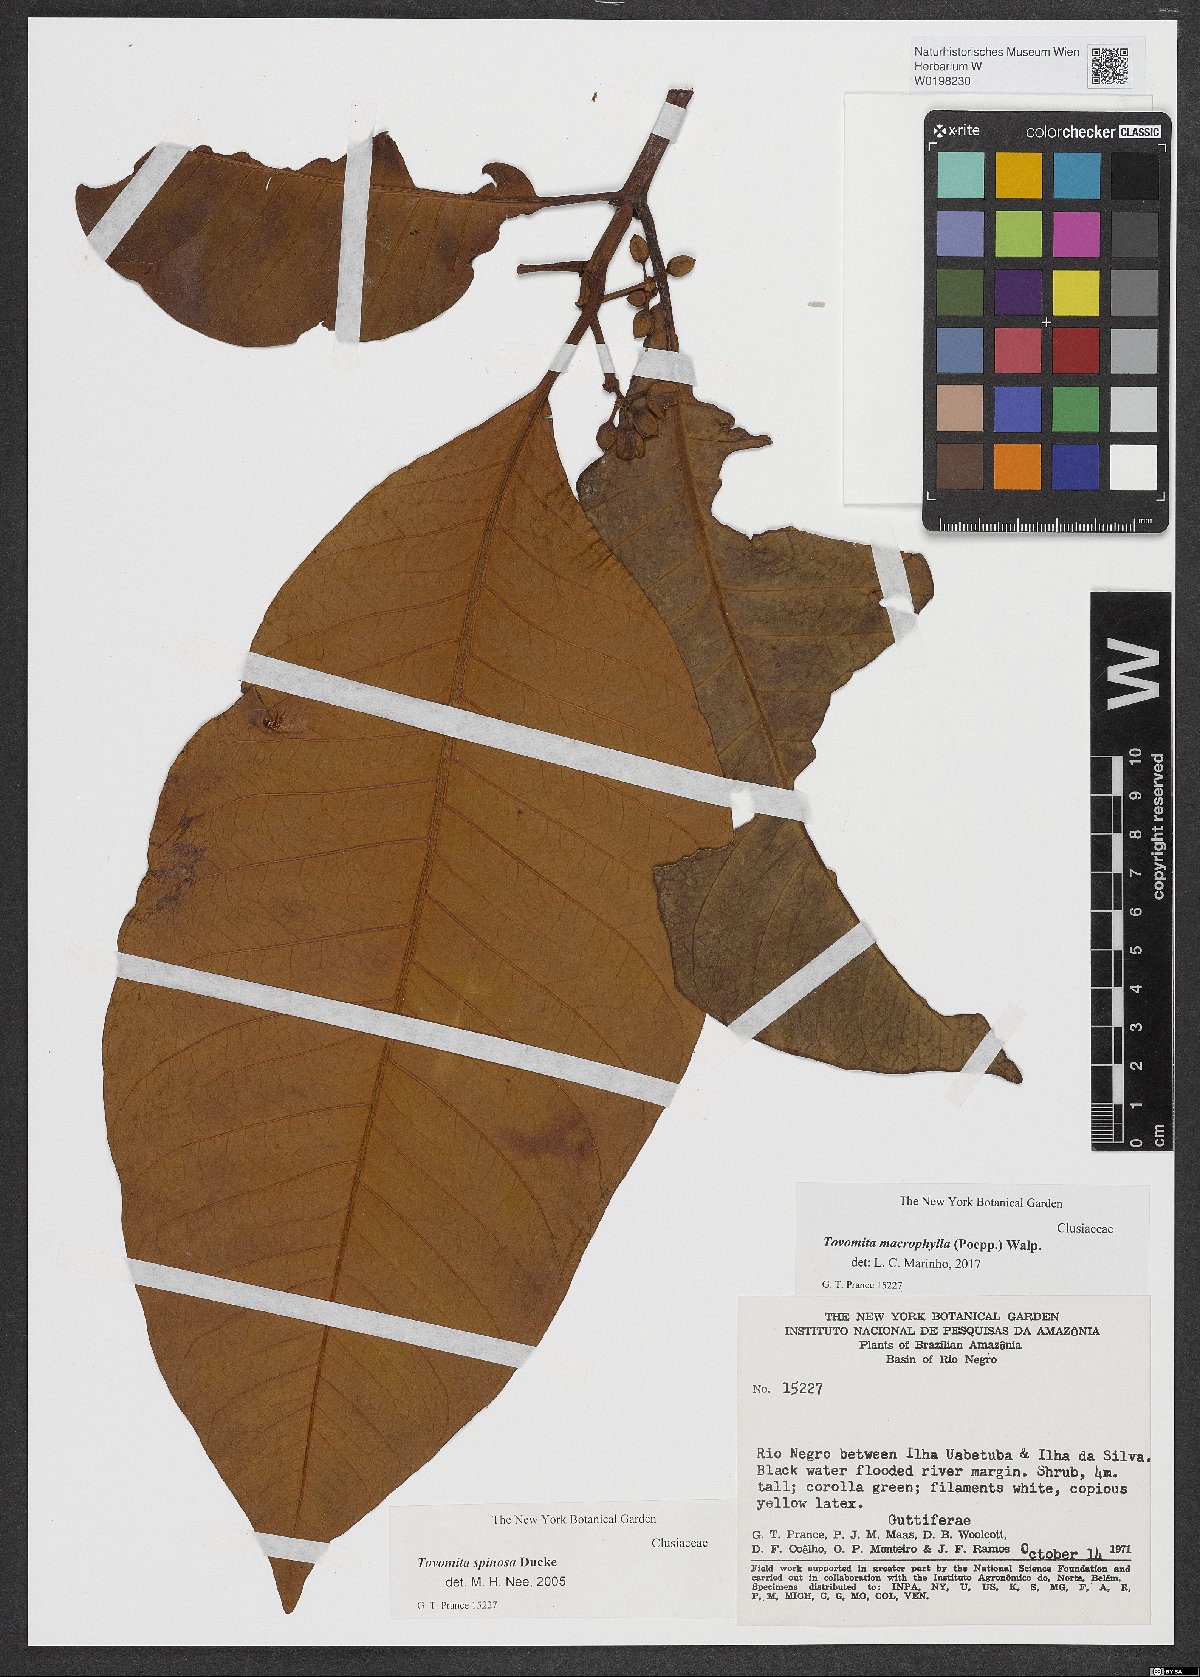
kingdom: Plantae
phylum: Tracheophyta
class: Magnoliopsida
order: Malpighiales
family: Clusiaceae
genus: Tovomita
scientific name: Tovomita macrophylla
